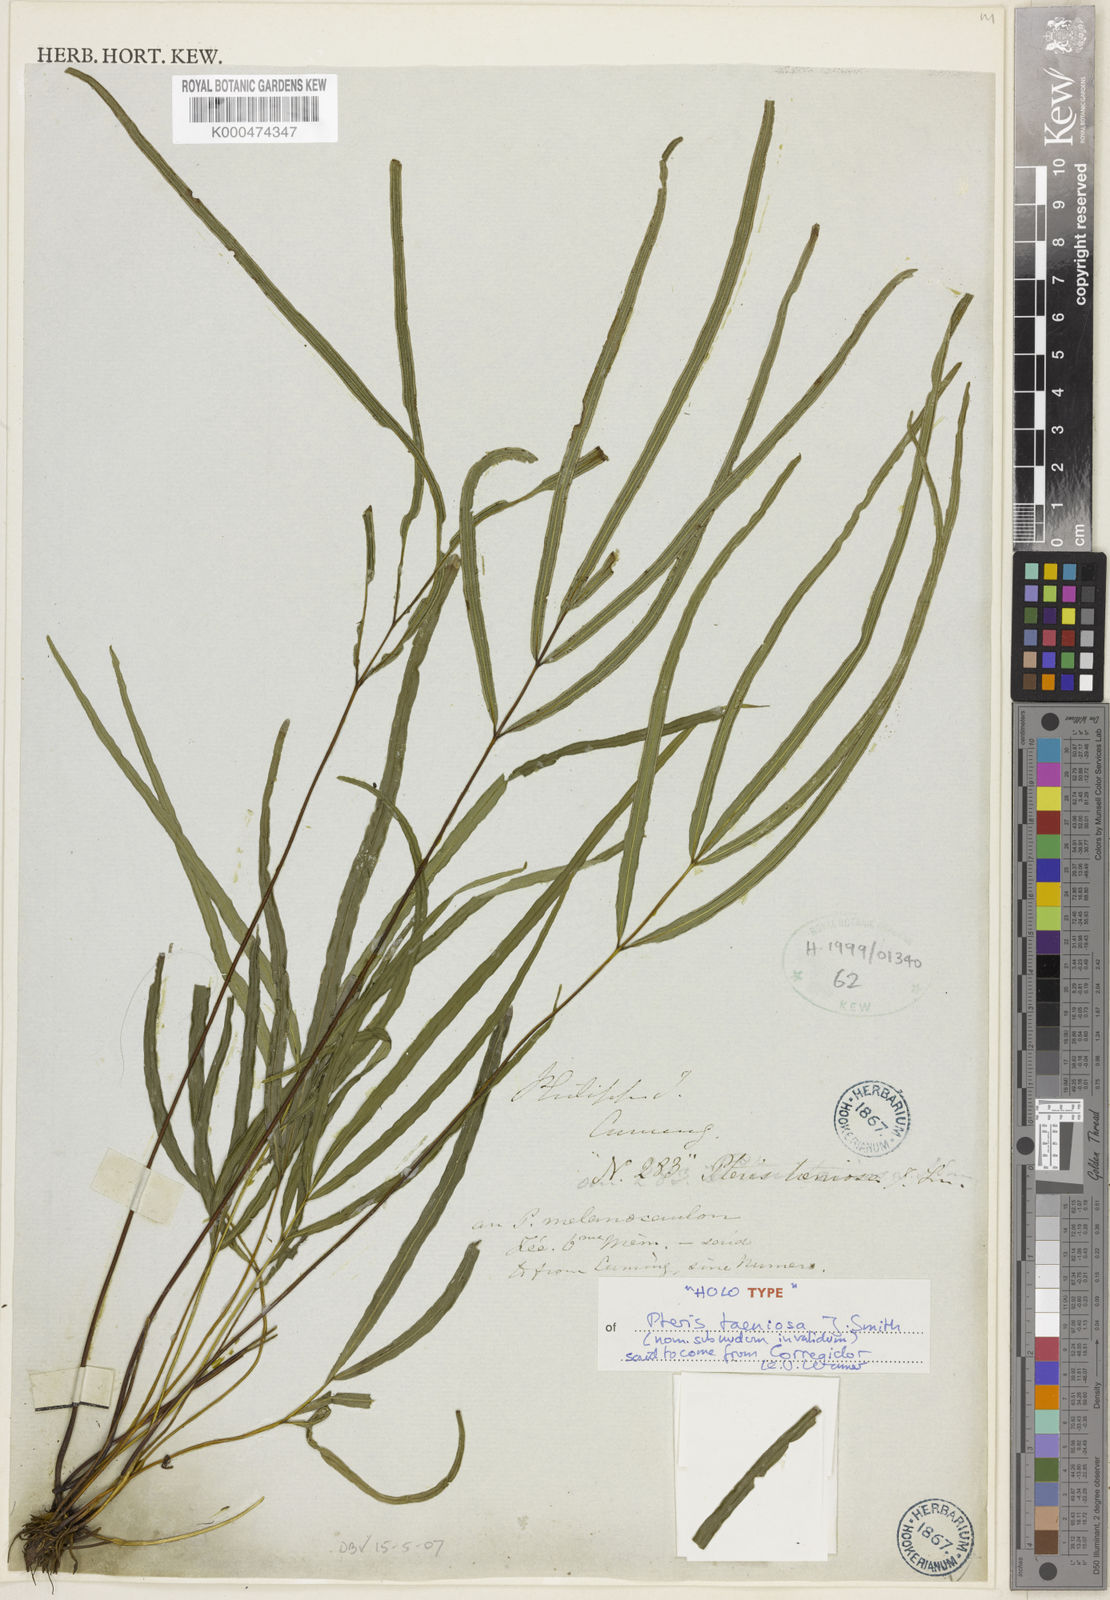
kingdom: Plantae
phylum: Tracheophyta
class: Polypodiopsida
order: Polypodiales
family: Pteridaceae
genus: Pteris
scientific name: Pteris cretica
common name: Ribbon fern
